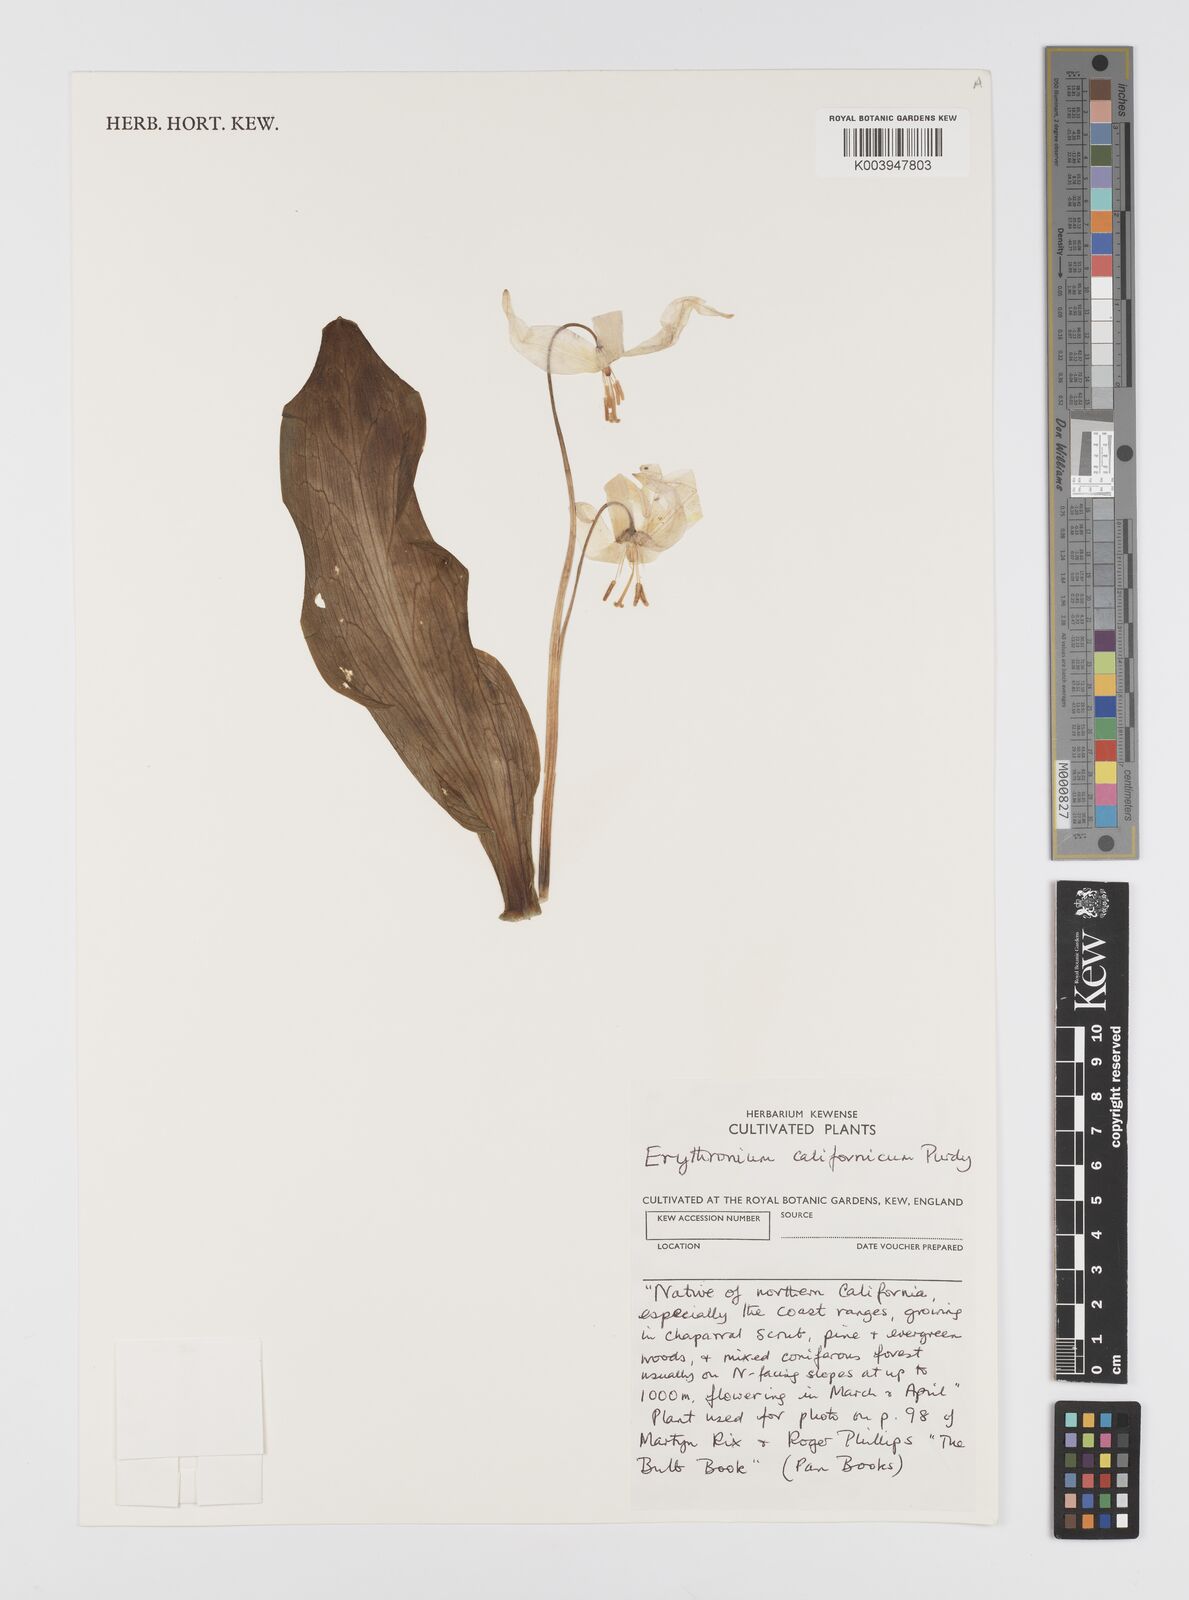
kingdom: Plantae
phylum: Tracheophyta
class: Liliopsida
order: Liliales
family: Liliaceae
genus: Erythronium
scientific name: Erythronium californicum
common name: Fawn-lily
